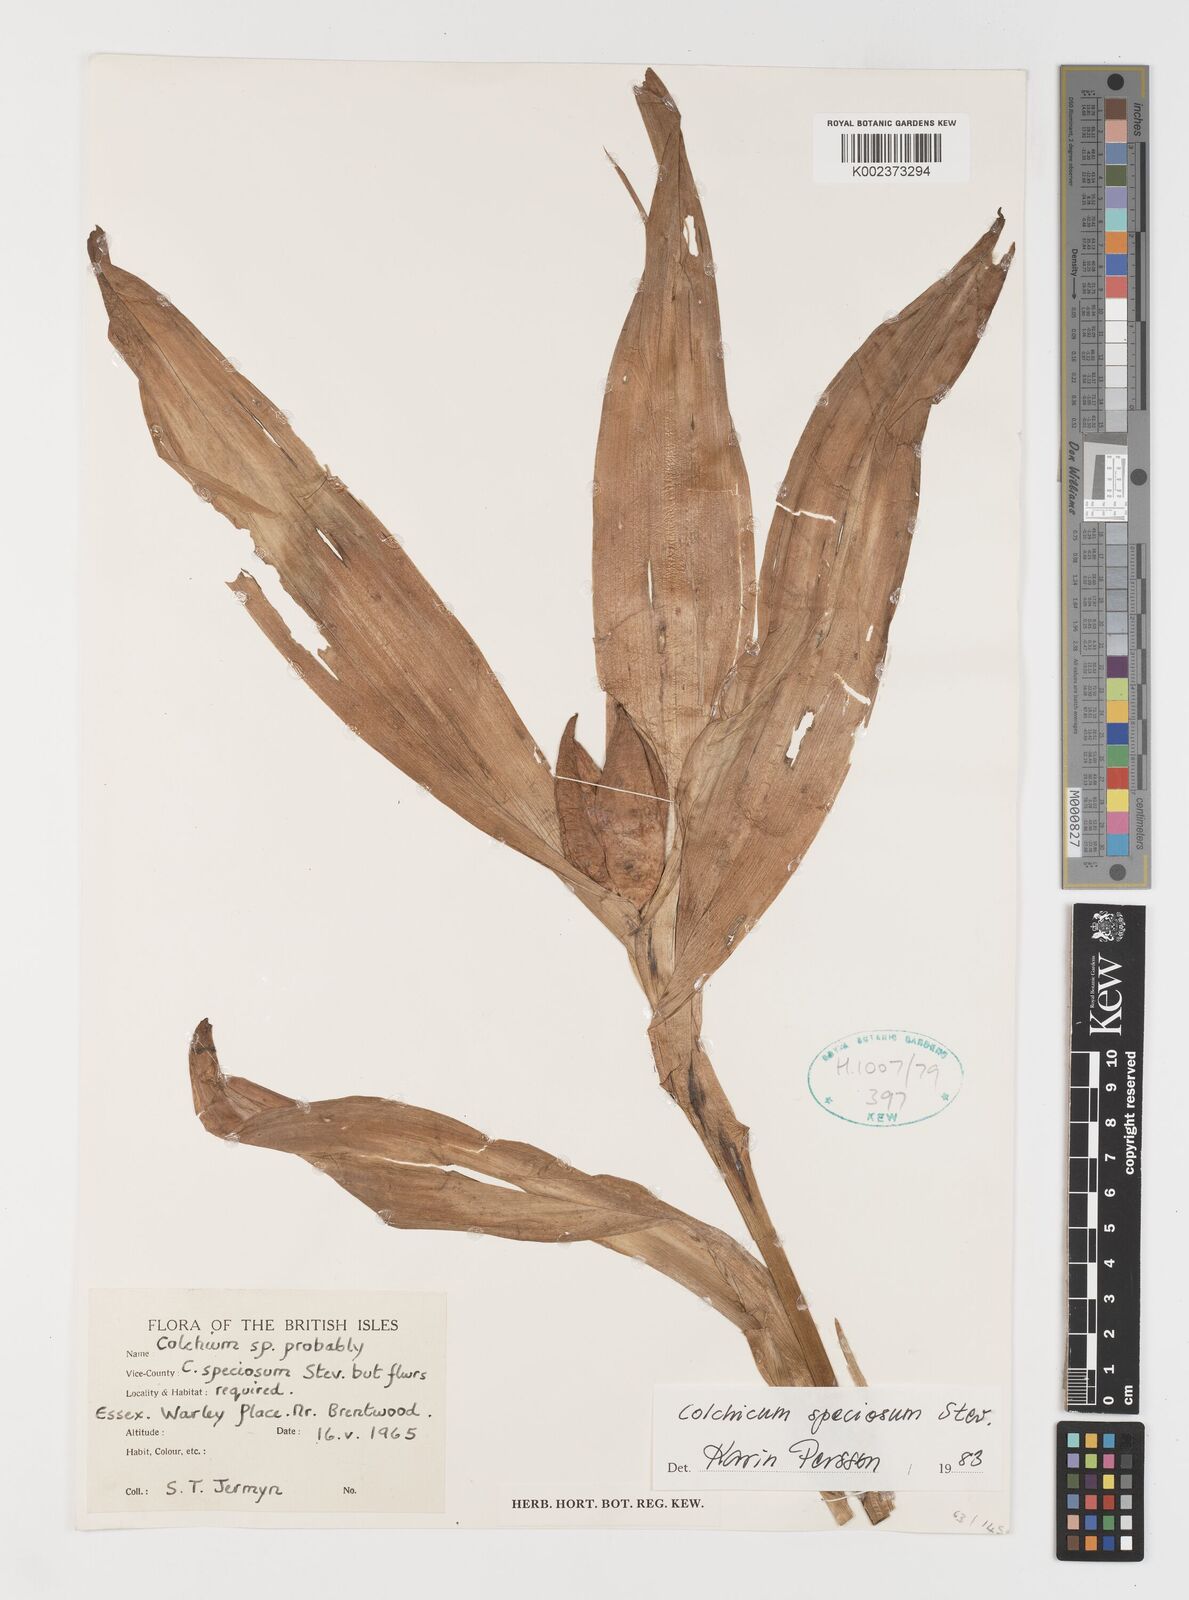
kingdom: Plantae
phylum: Tracheophyta
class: Liliopsida
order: Liliales
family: Colchicaceae
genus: Colchicum
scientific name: Colchicum speciosum
